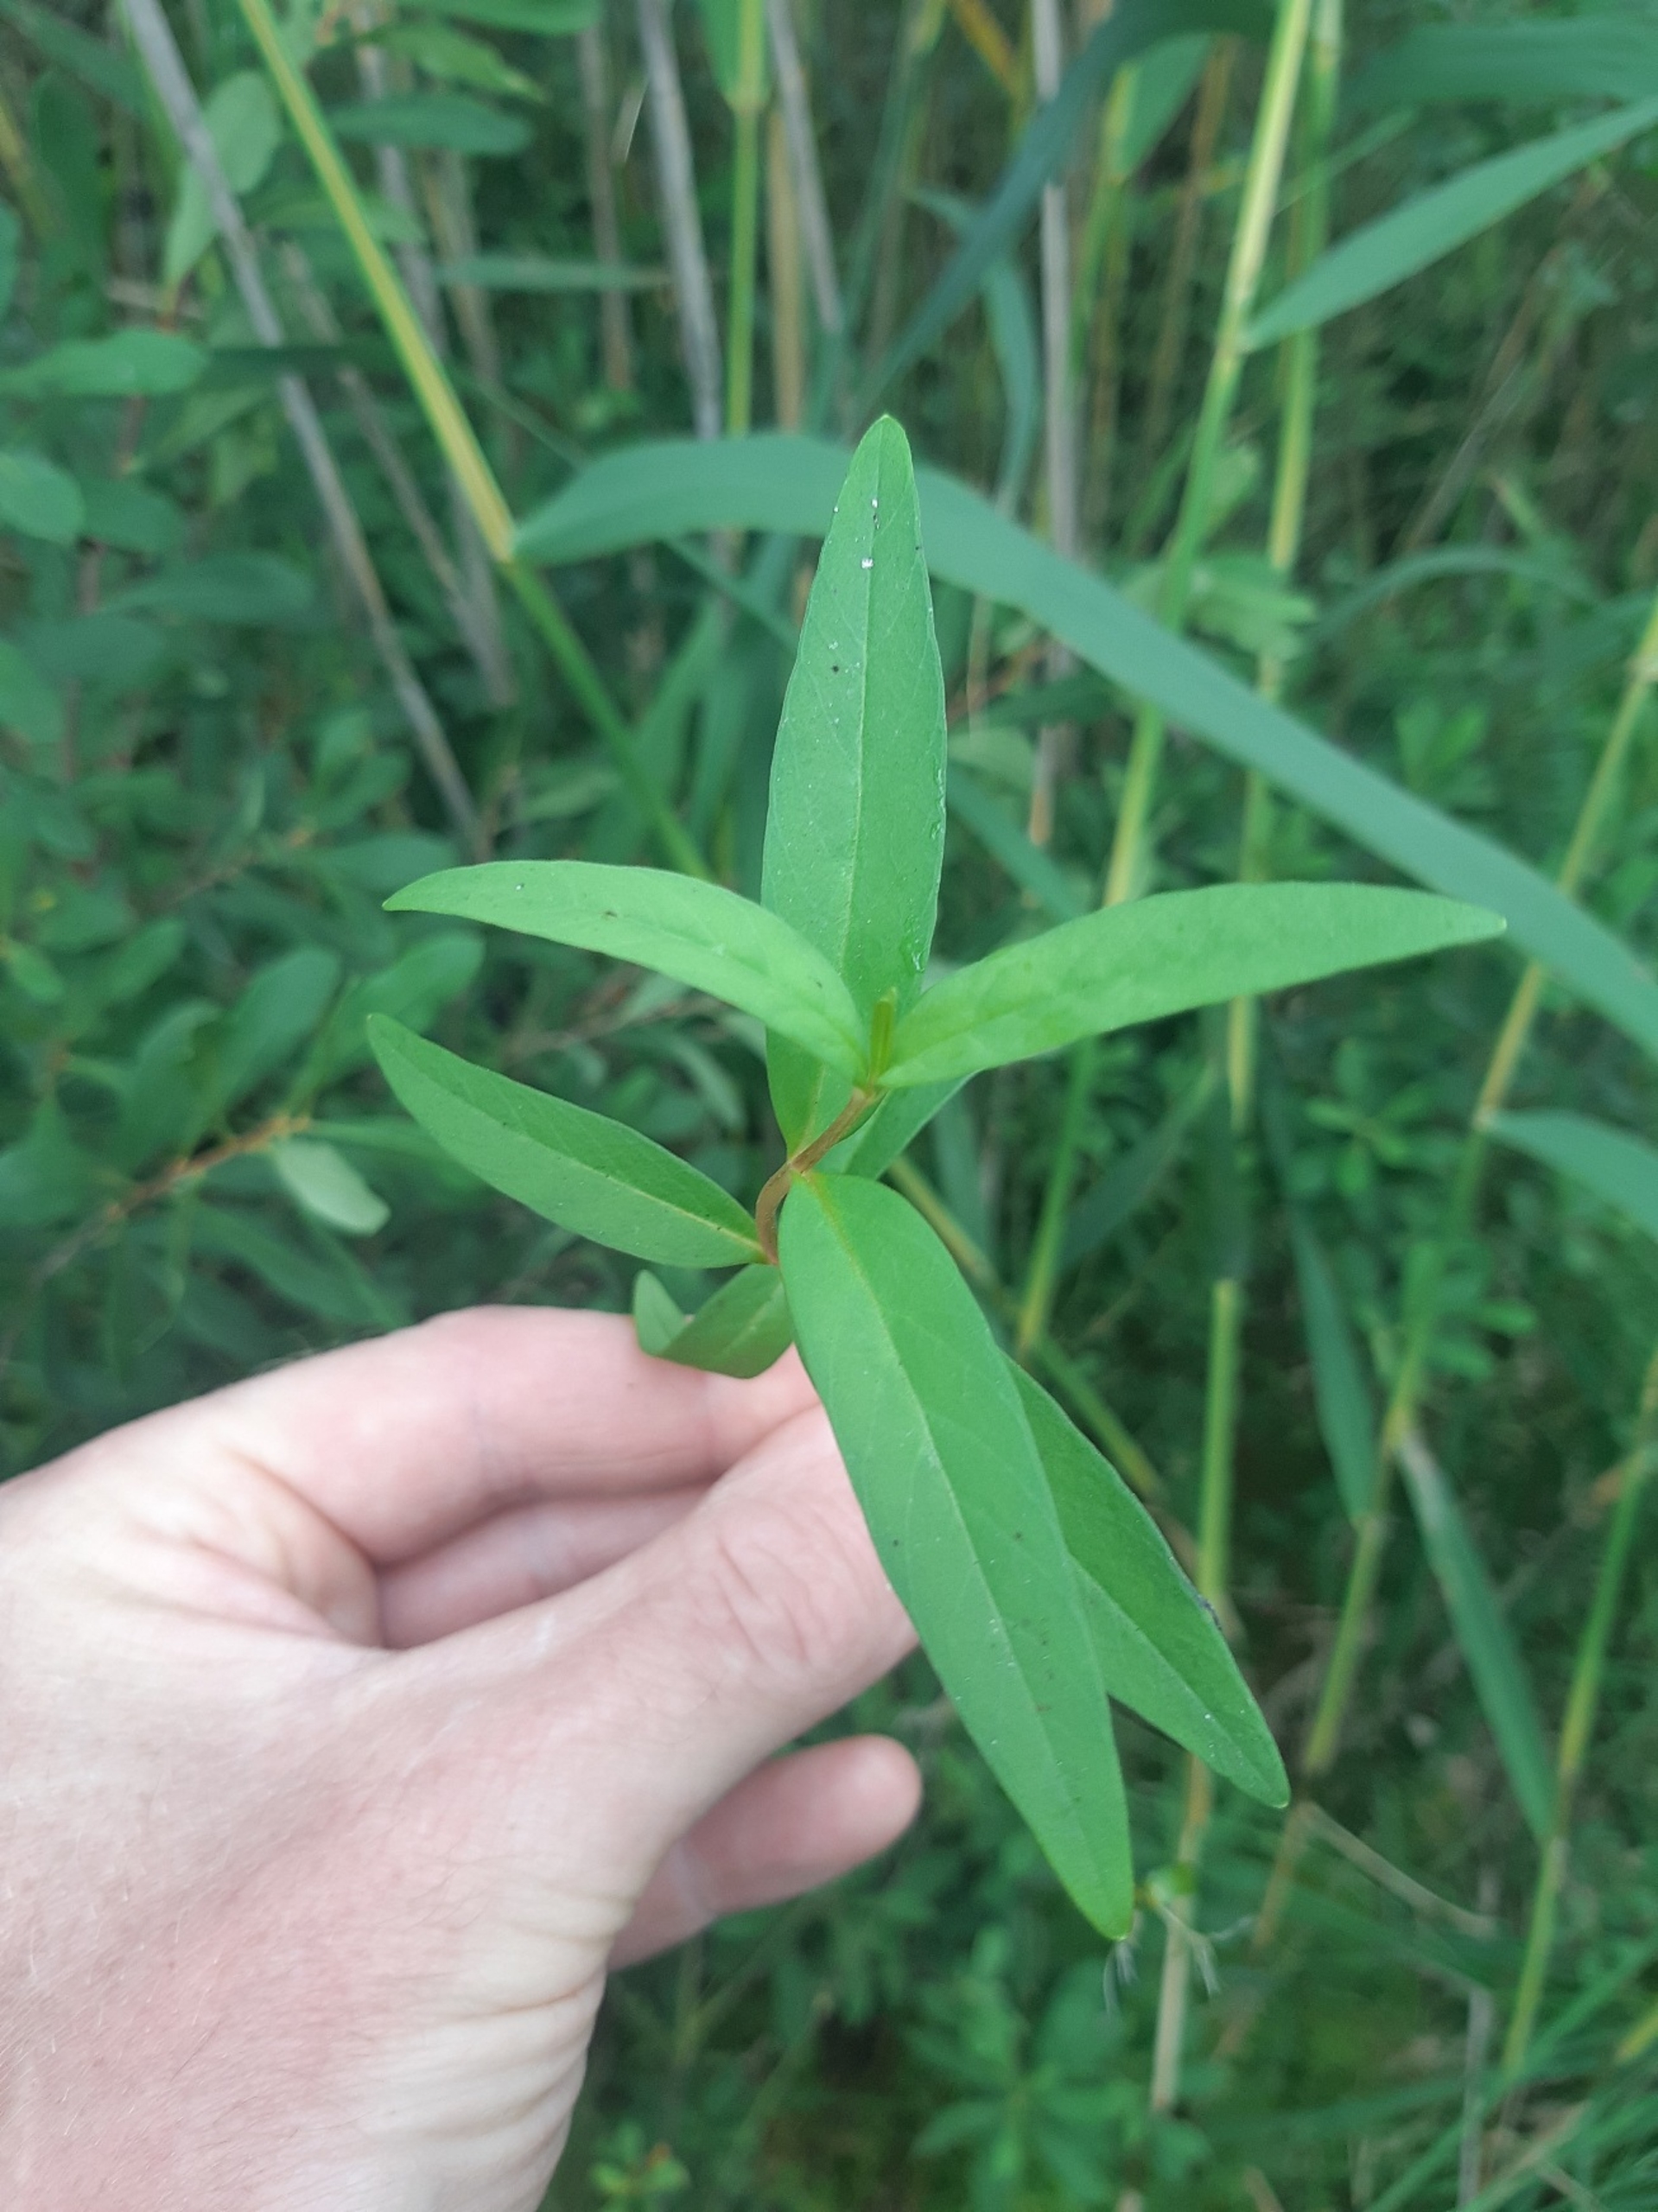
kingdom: Plantae
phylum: Tracheophyta
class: Magnoliopsida
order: Ericales
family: Primulaceae
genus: Lysimachia
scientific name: Lysimachia thyrsiflora
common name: Dusk-fredløs
